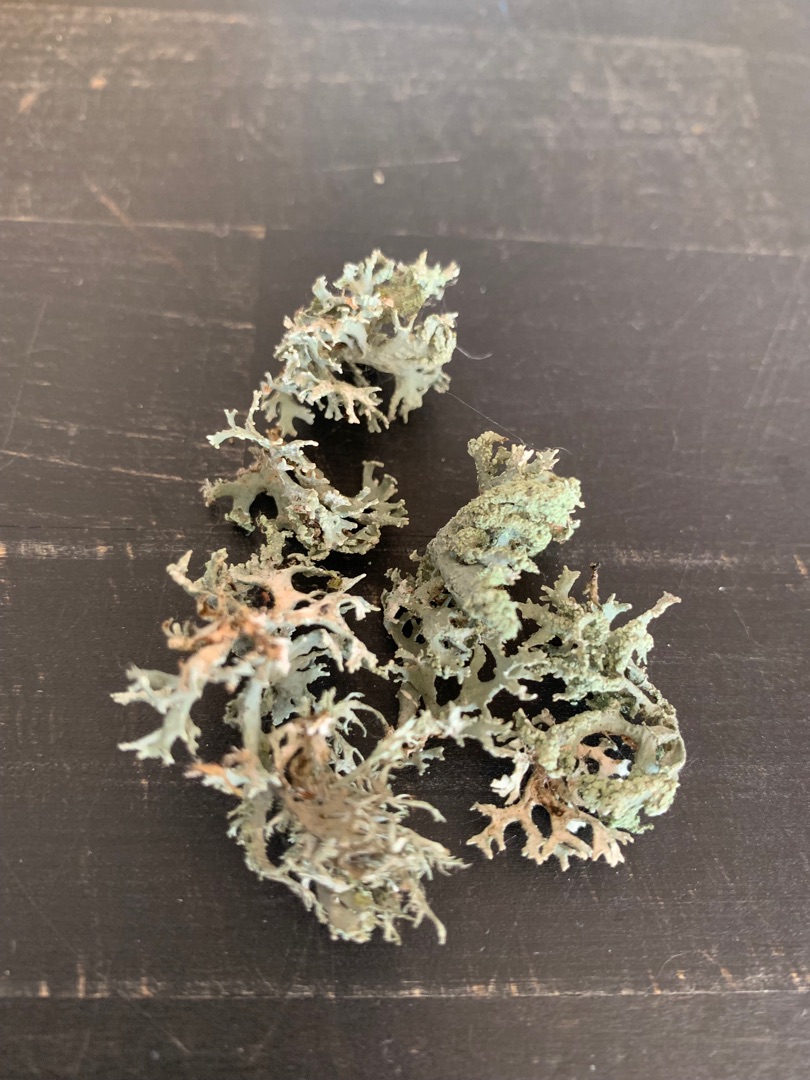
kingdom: Fungi
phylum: Ascomycota
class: Lecanoromycetes
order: Lecanorales
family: Parmeliaceae
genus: Evernia
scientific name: Evernia prunastri
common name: Almindelig slåenlav
